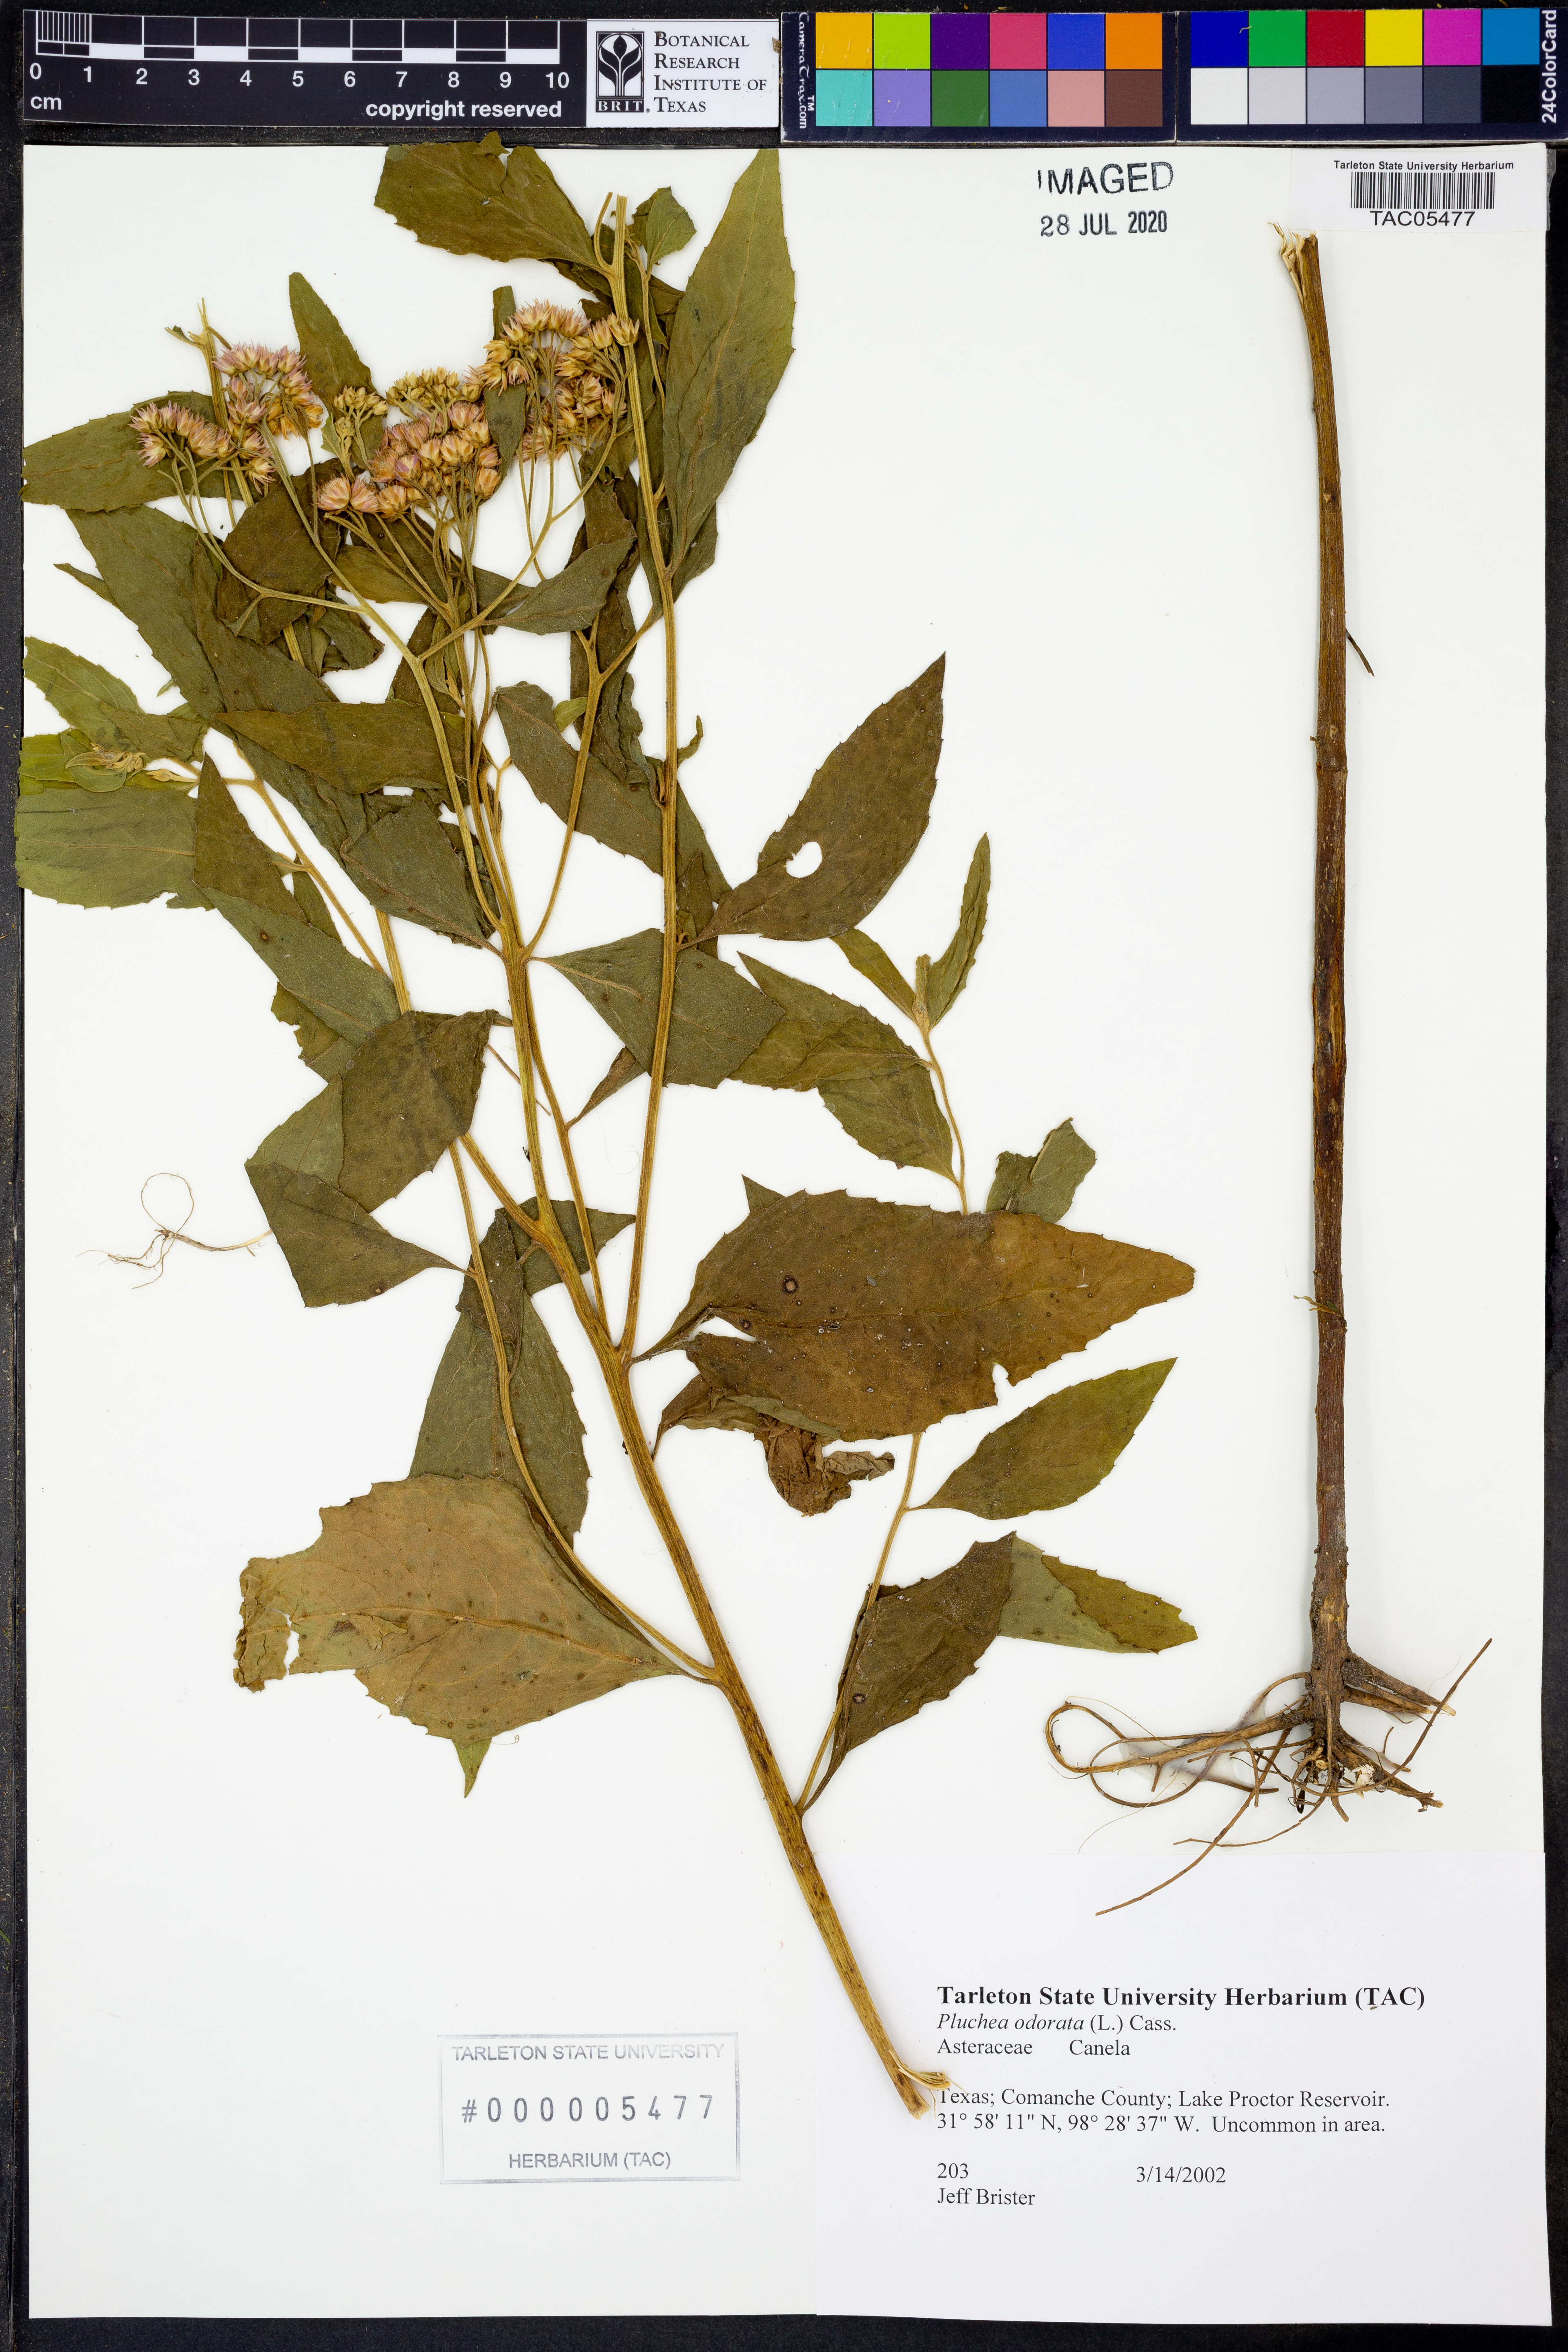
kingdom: Plantae
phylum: Tracheophyta
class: Magnoliopsida
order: Asterales
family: Asteraceae
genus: Pluchea
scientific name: Pluchea odorata
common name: Saltmarsh fleabane
